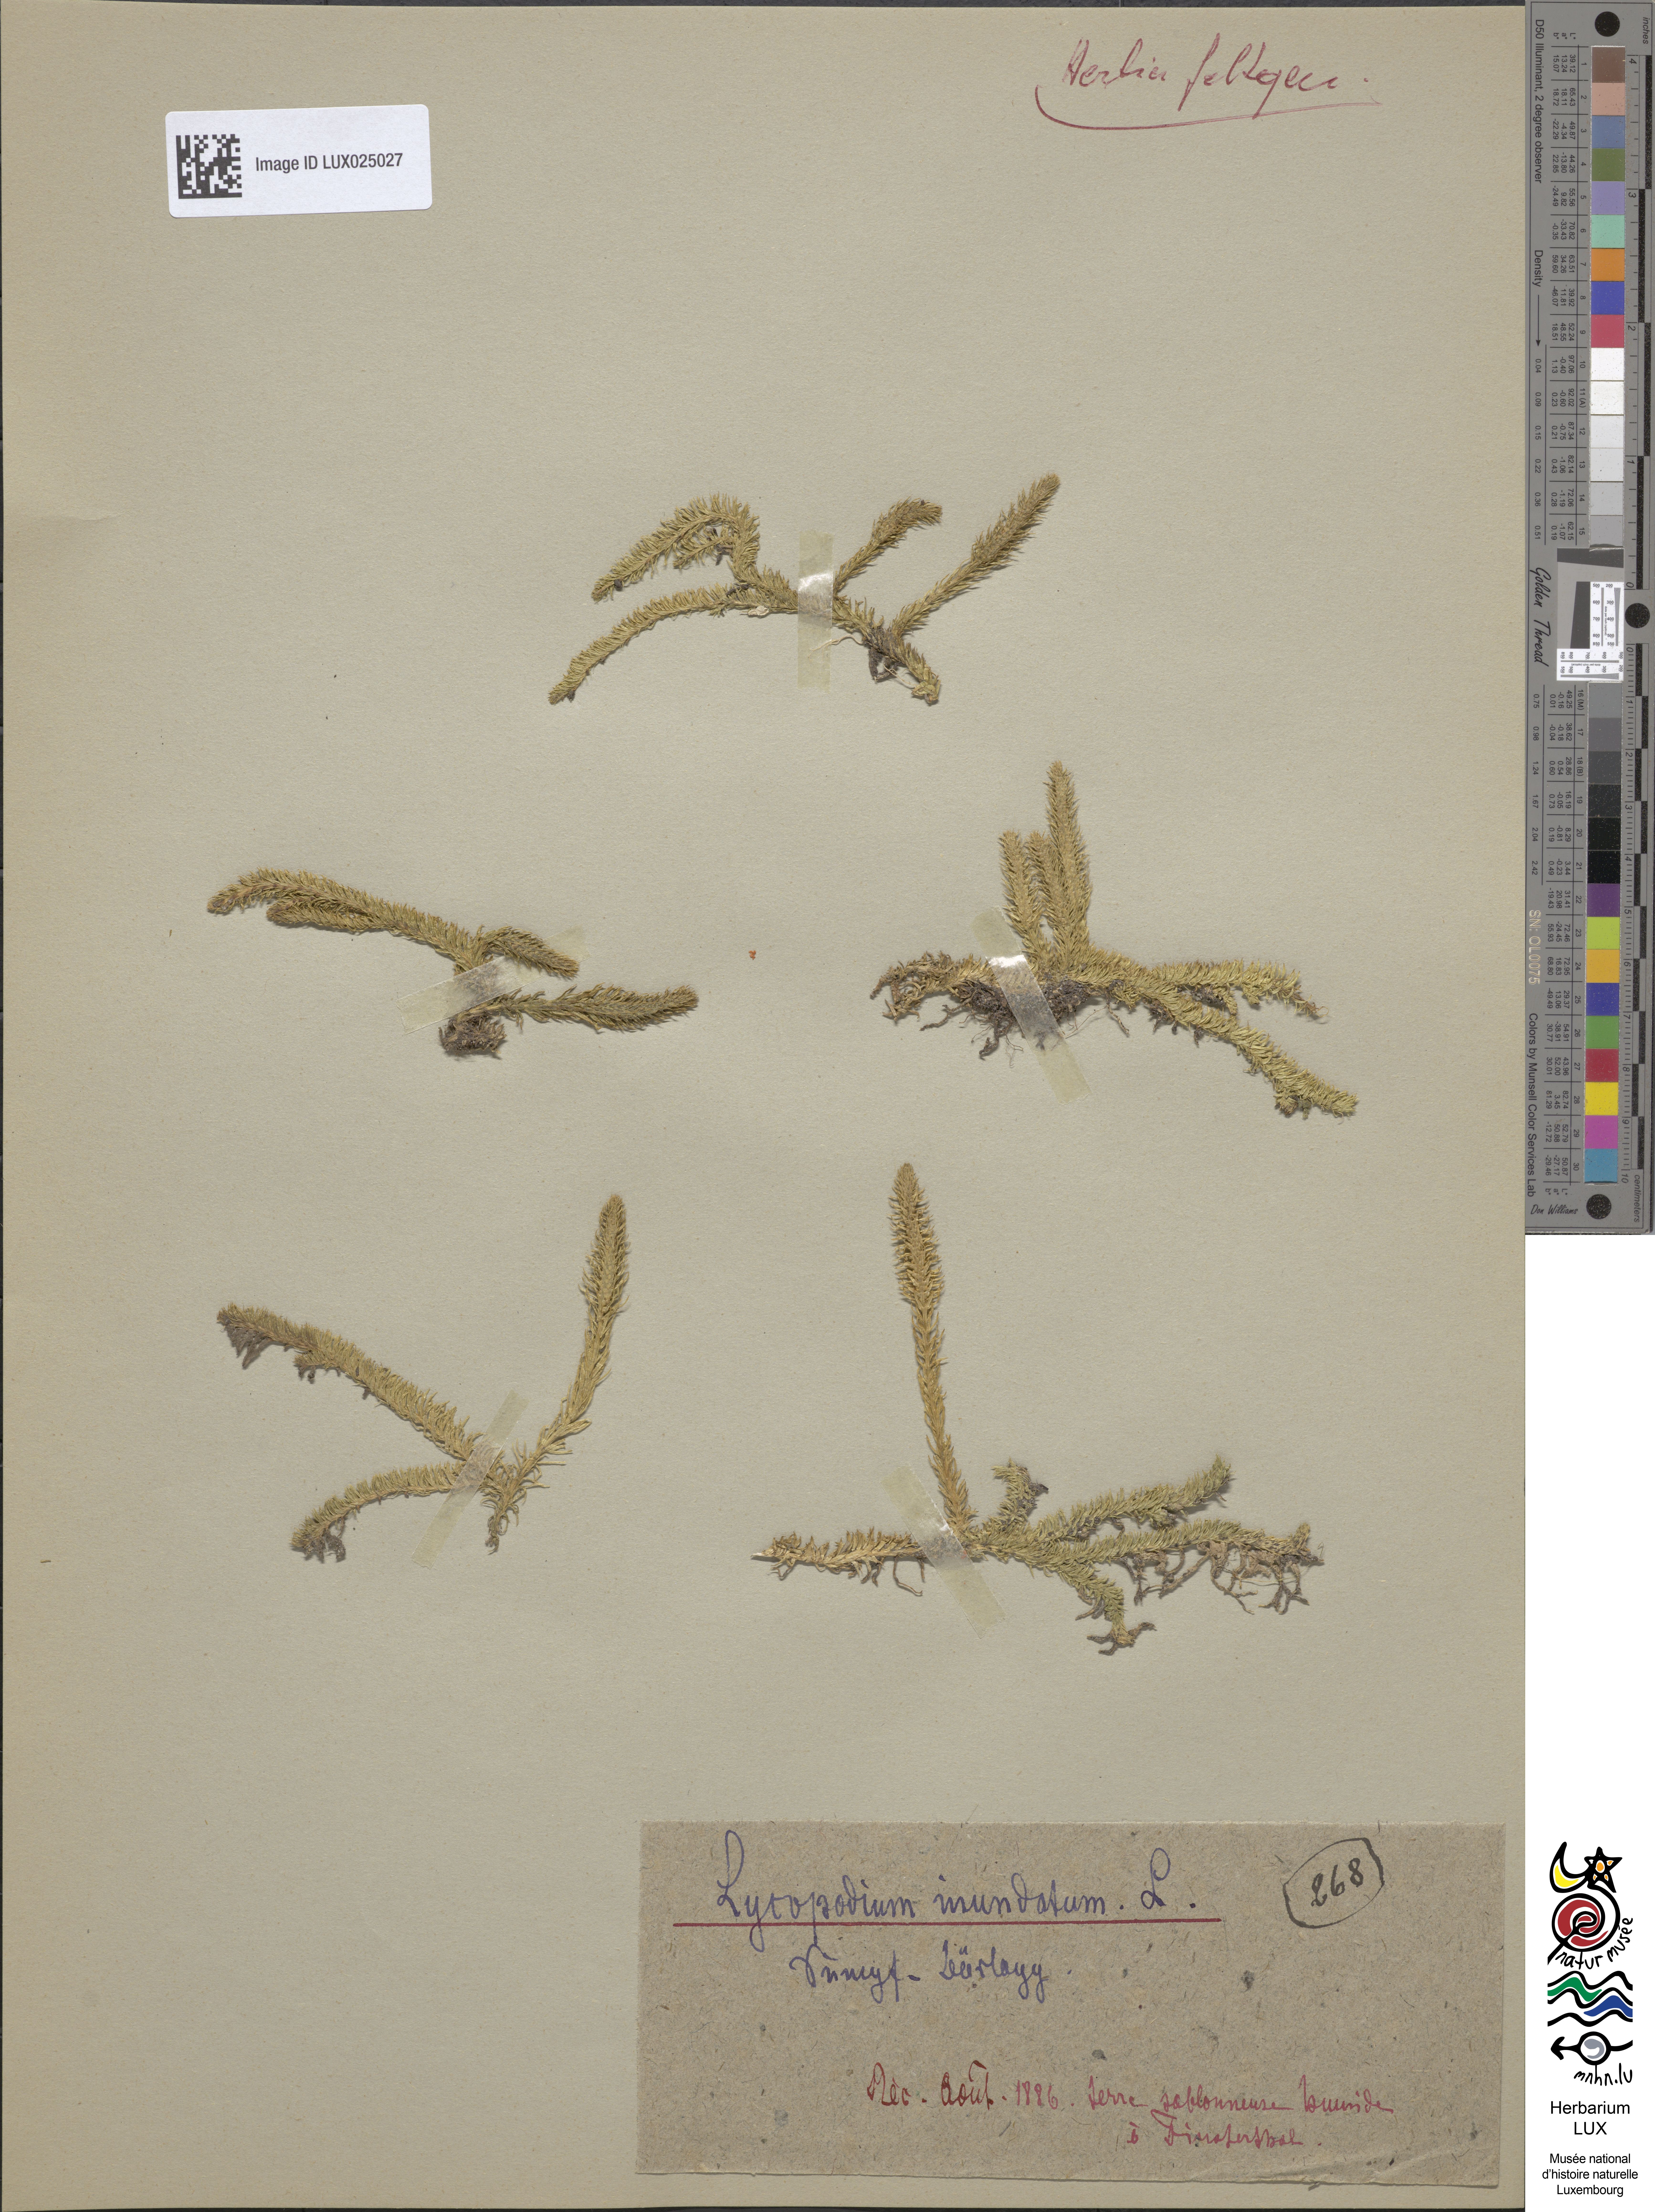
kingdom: Plantae
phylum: Tracheophyta
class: Lycopodiopsida
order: Lycopodiales
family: Lycopodiaceae
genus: Lycopodiella
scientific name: Lycopodiella inundata
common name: Marsh clubmoss
